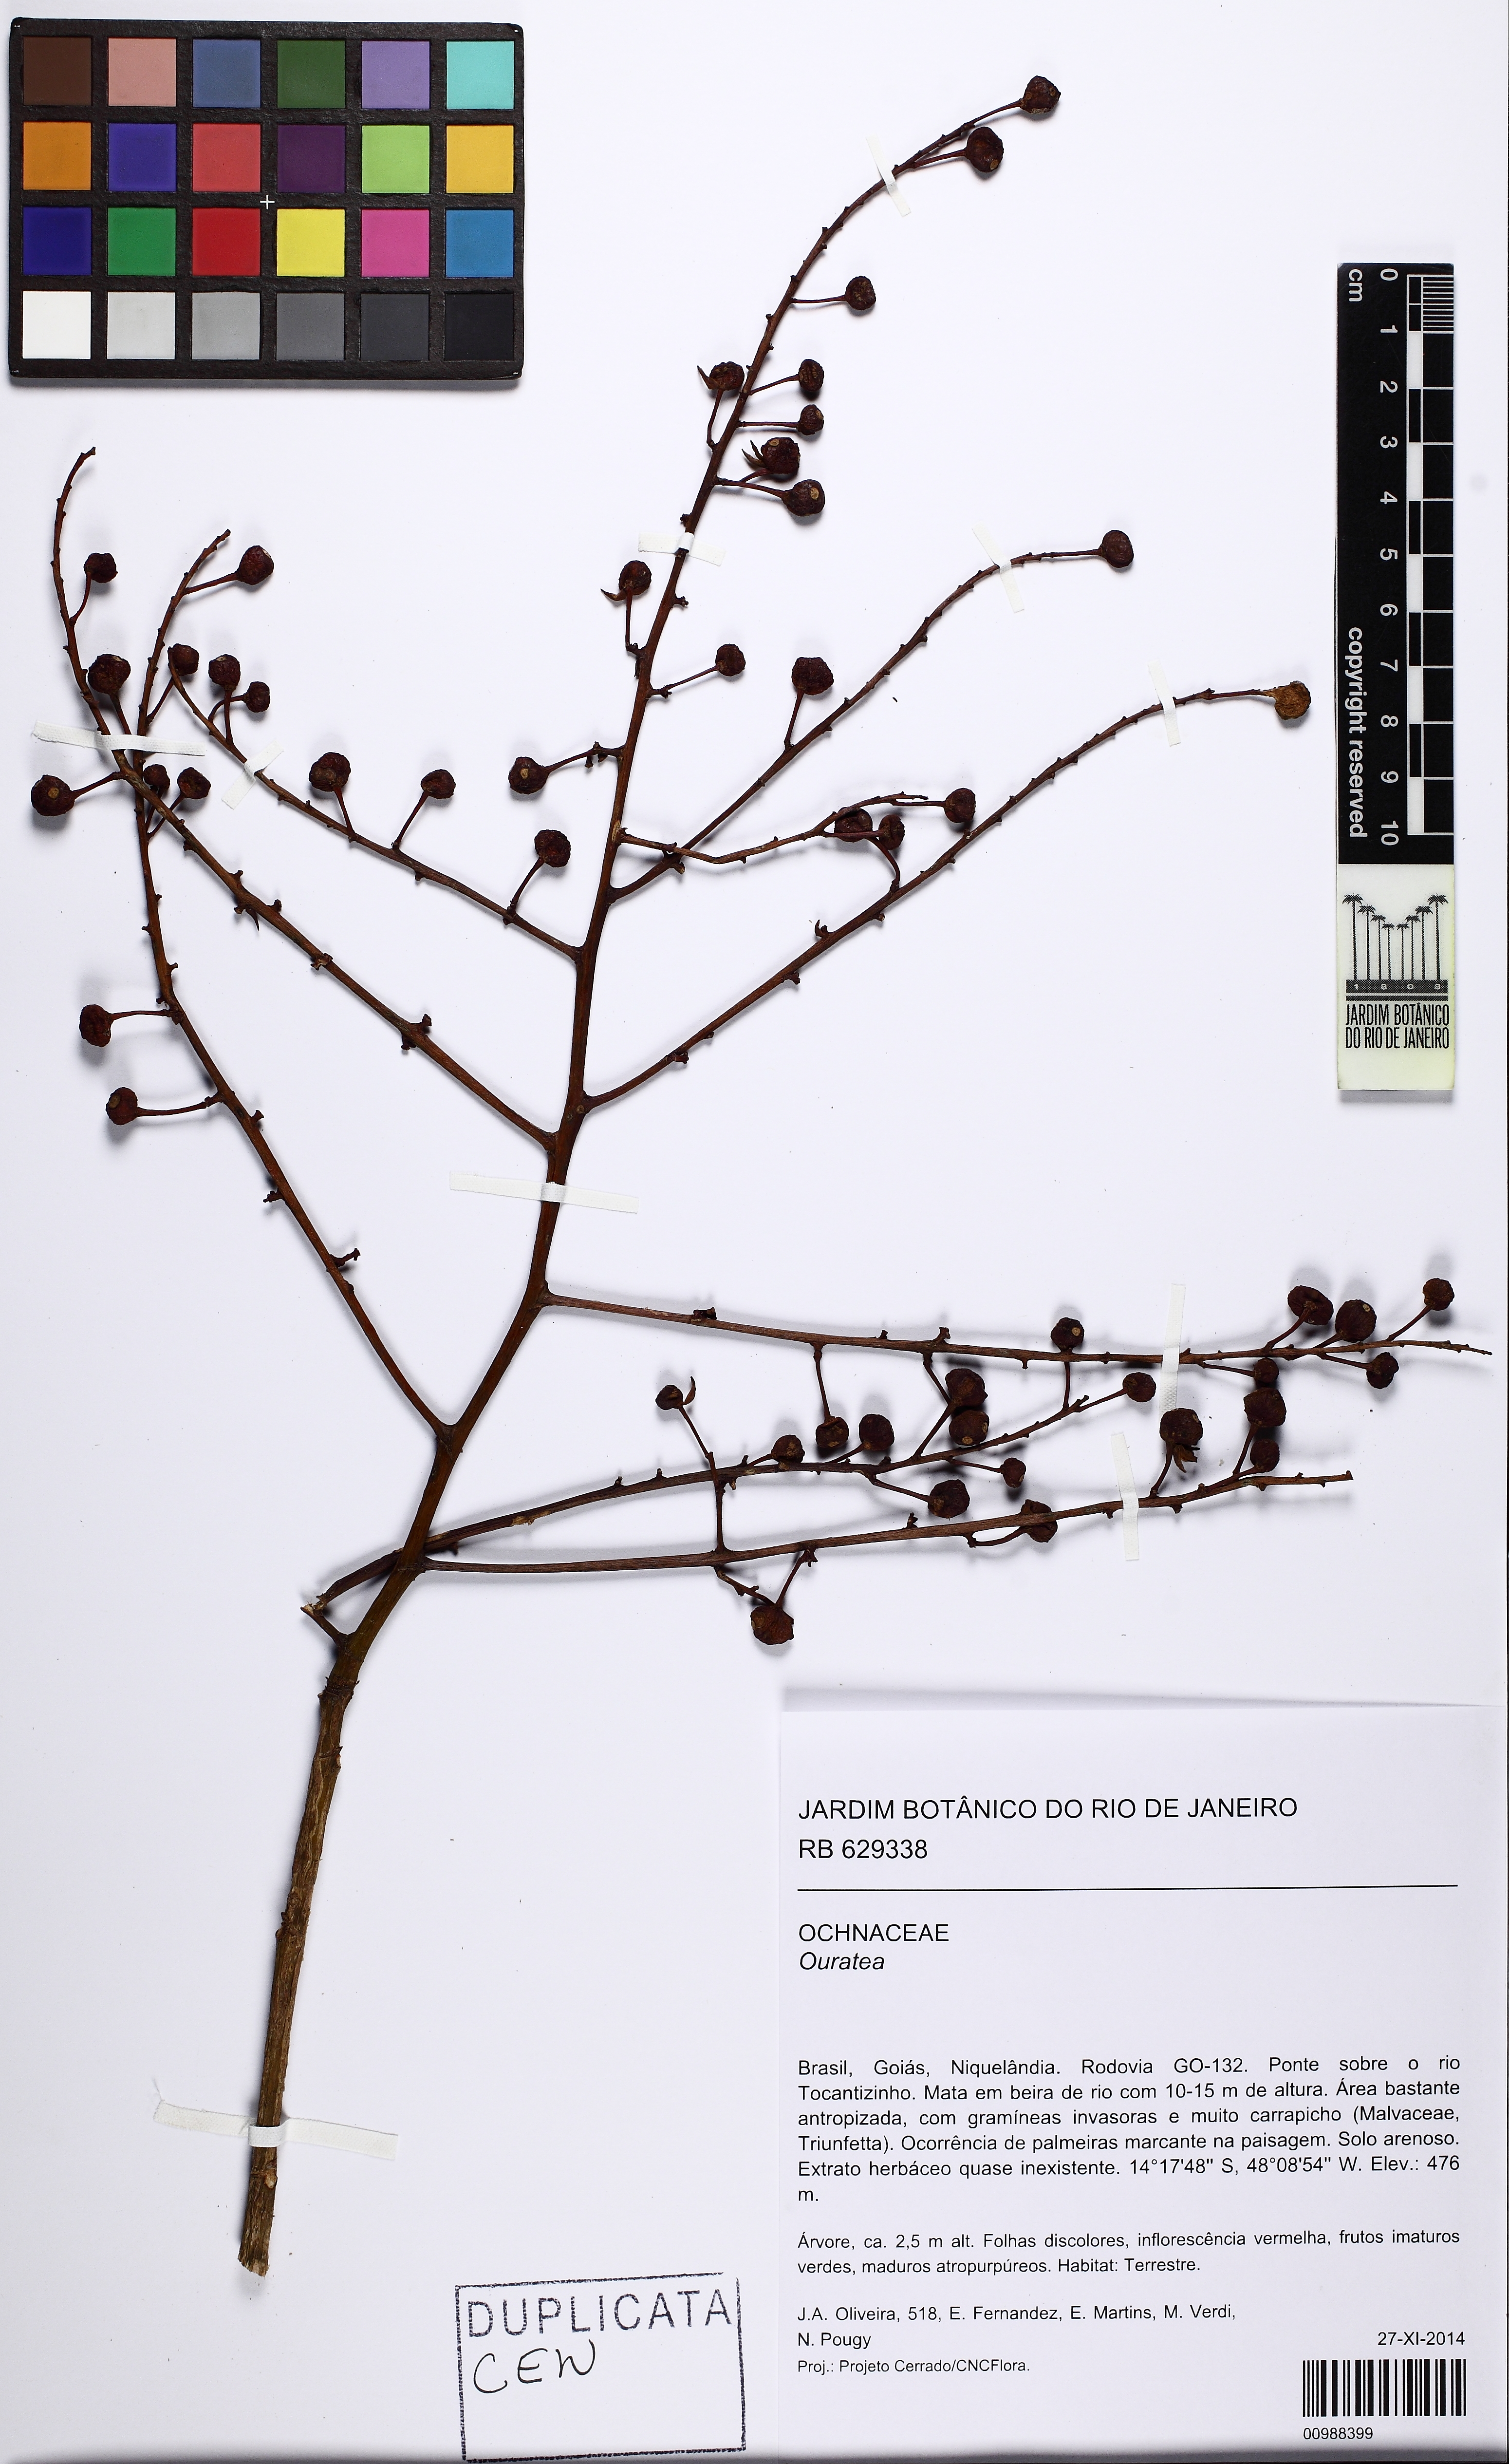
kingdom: Plantae
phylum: Tracheophyta
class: Magnoliopsida
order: Malpighiales
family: Ochnaceae
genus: Ouratea
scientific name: Ouratea
